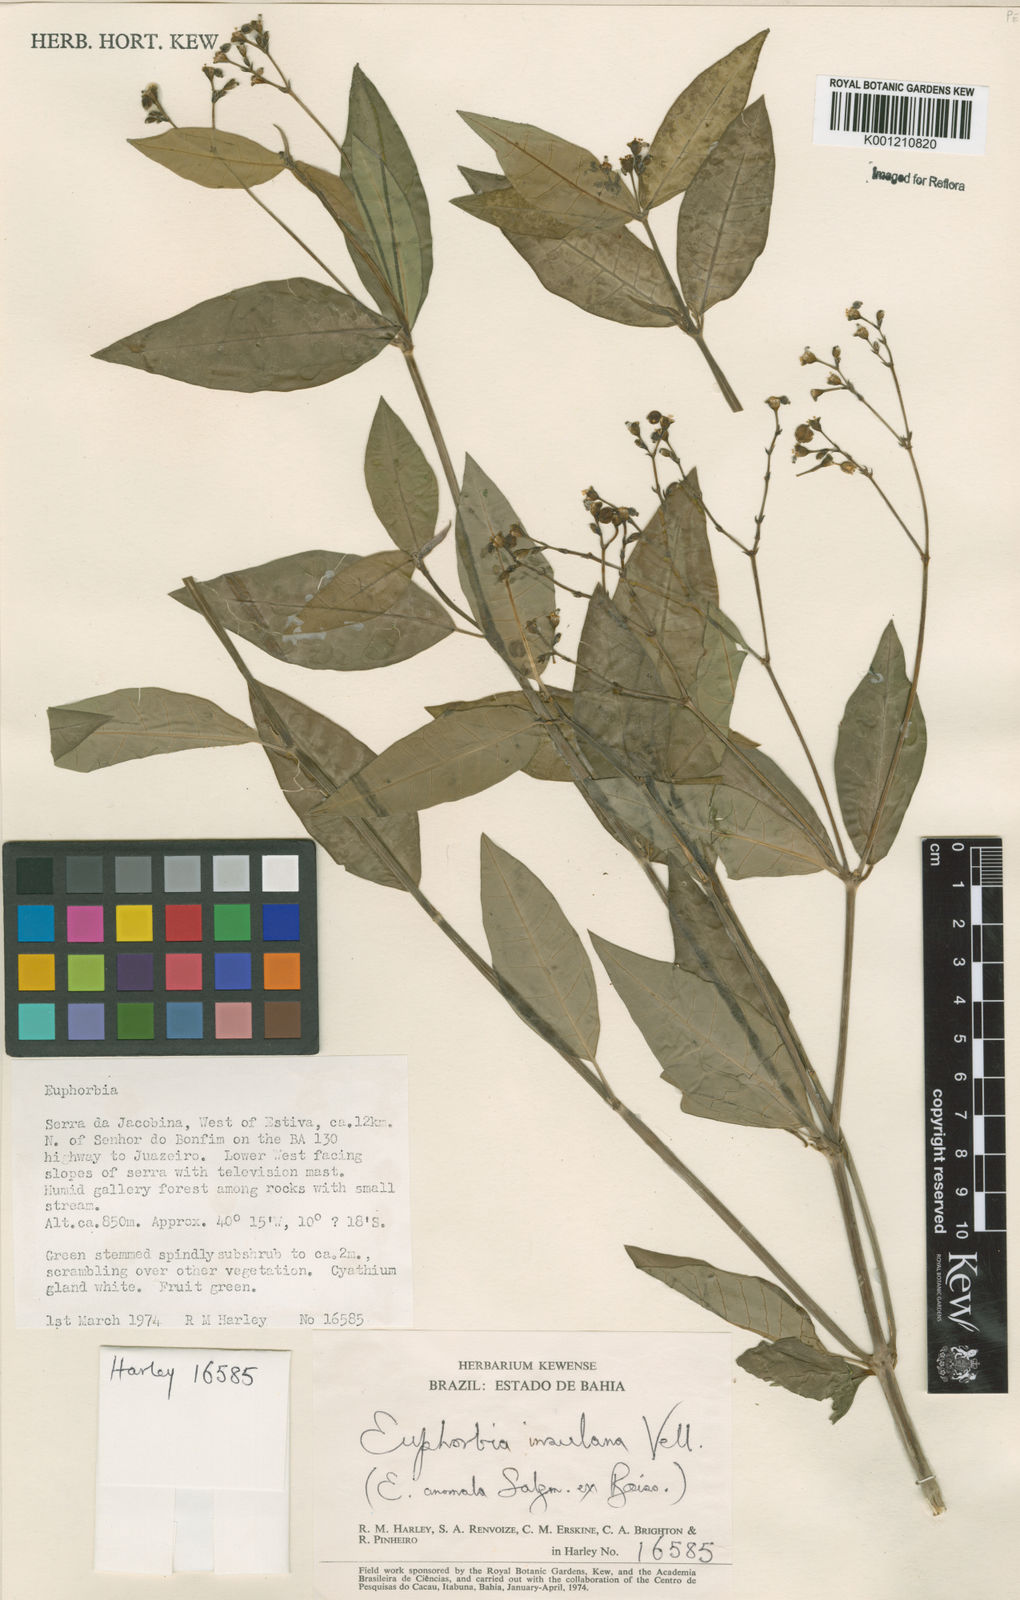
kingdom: Plantae
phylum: Tracheophyta
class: Magnoliopsida
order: Malpighiales
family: Euphorbiaceae
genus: Euphorbia
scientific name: Euphorbia insulana
